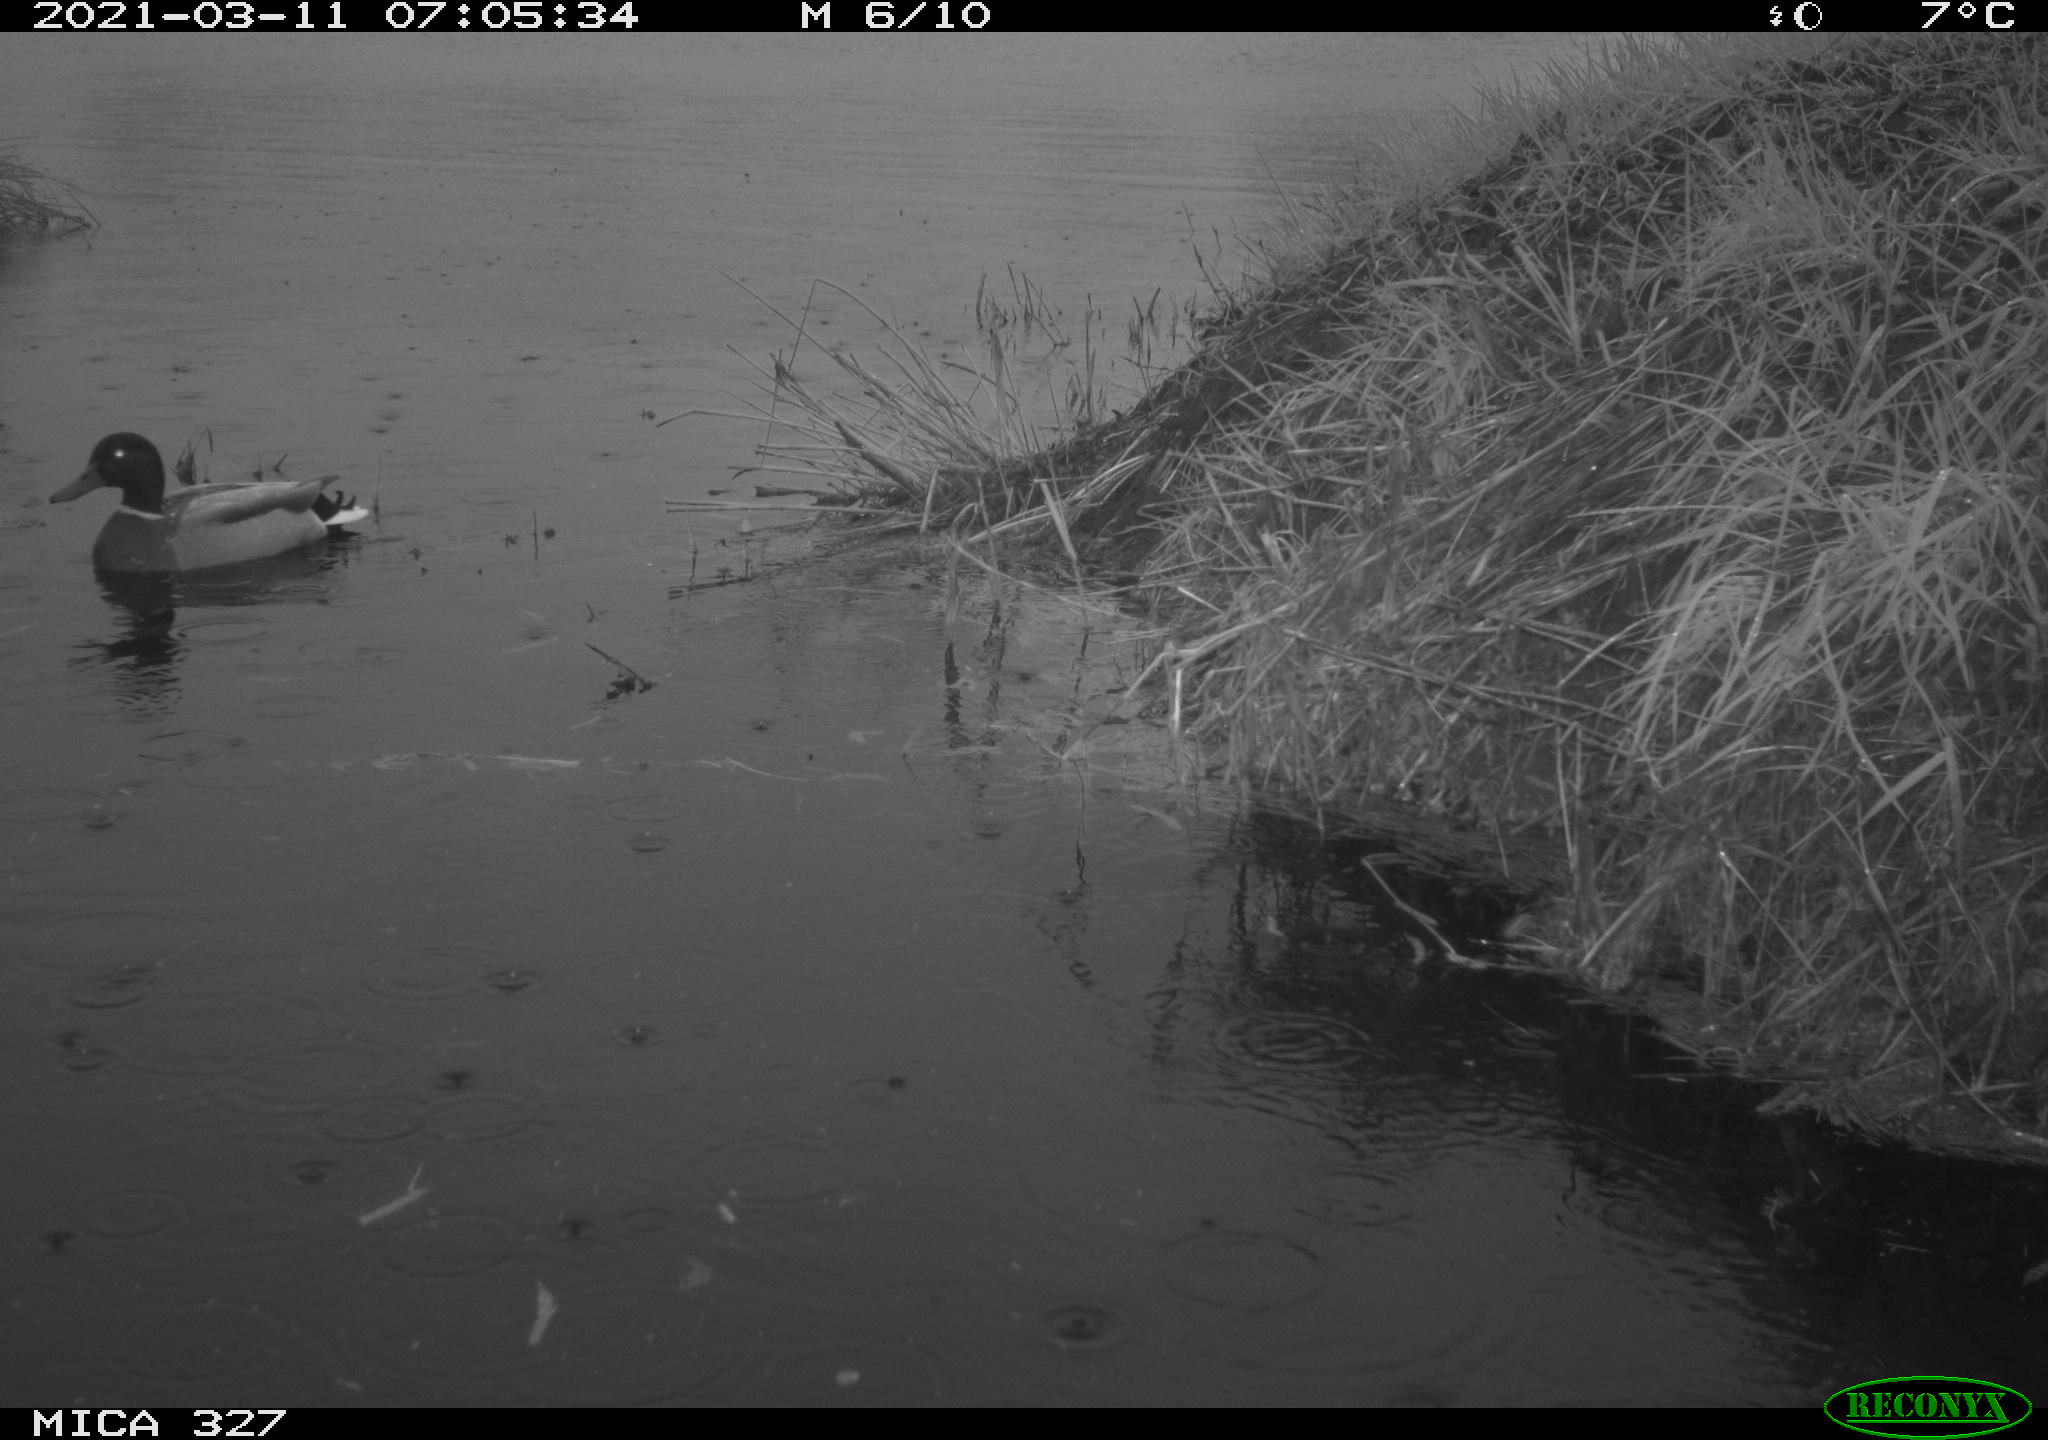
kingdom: Animalia
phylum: Chordata
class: Aves
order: Anseriformes
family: Anatidae
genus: Anas
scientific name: Anas platyrhynchos
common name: Mallard
